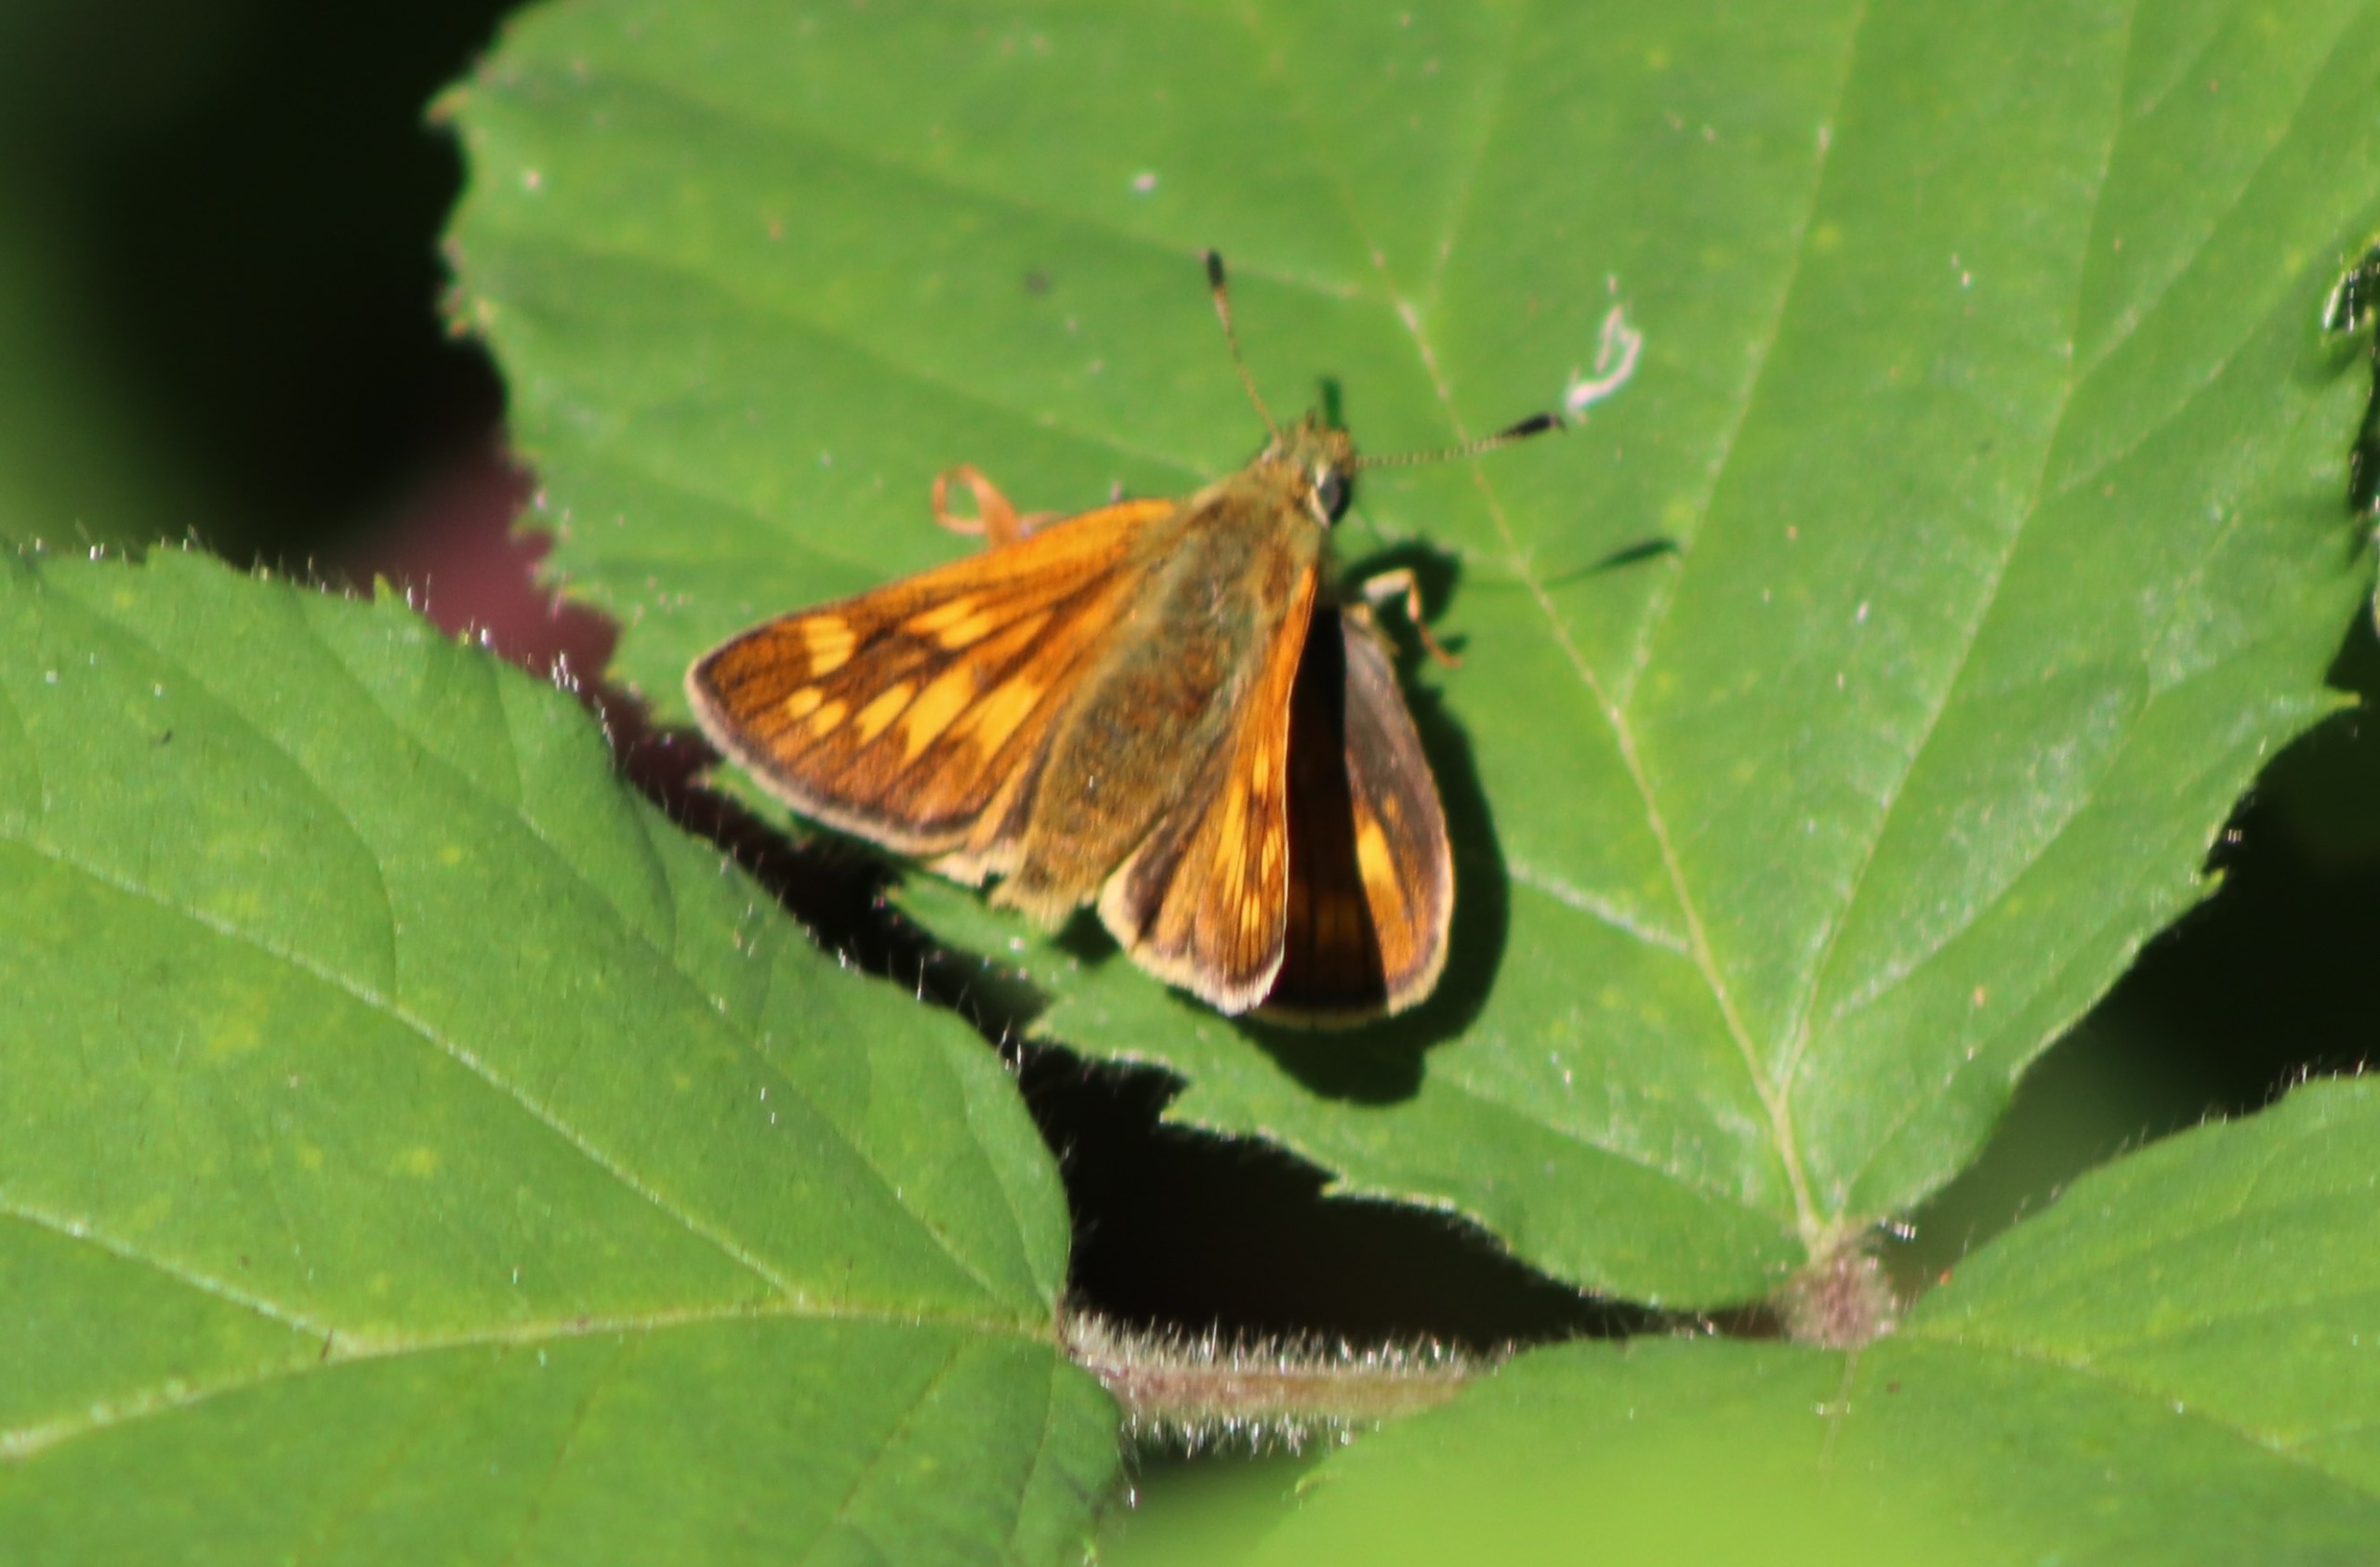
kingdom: Animalia
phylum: Arthropoda
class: Insecta
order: Lepidoptera
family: Hesperiidae
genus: Ochlodes
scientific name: Ochlodes venata
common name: Stor bredpande
